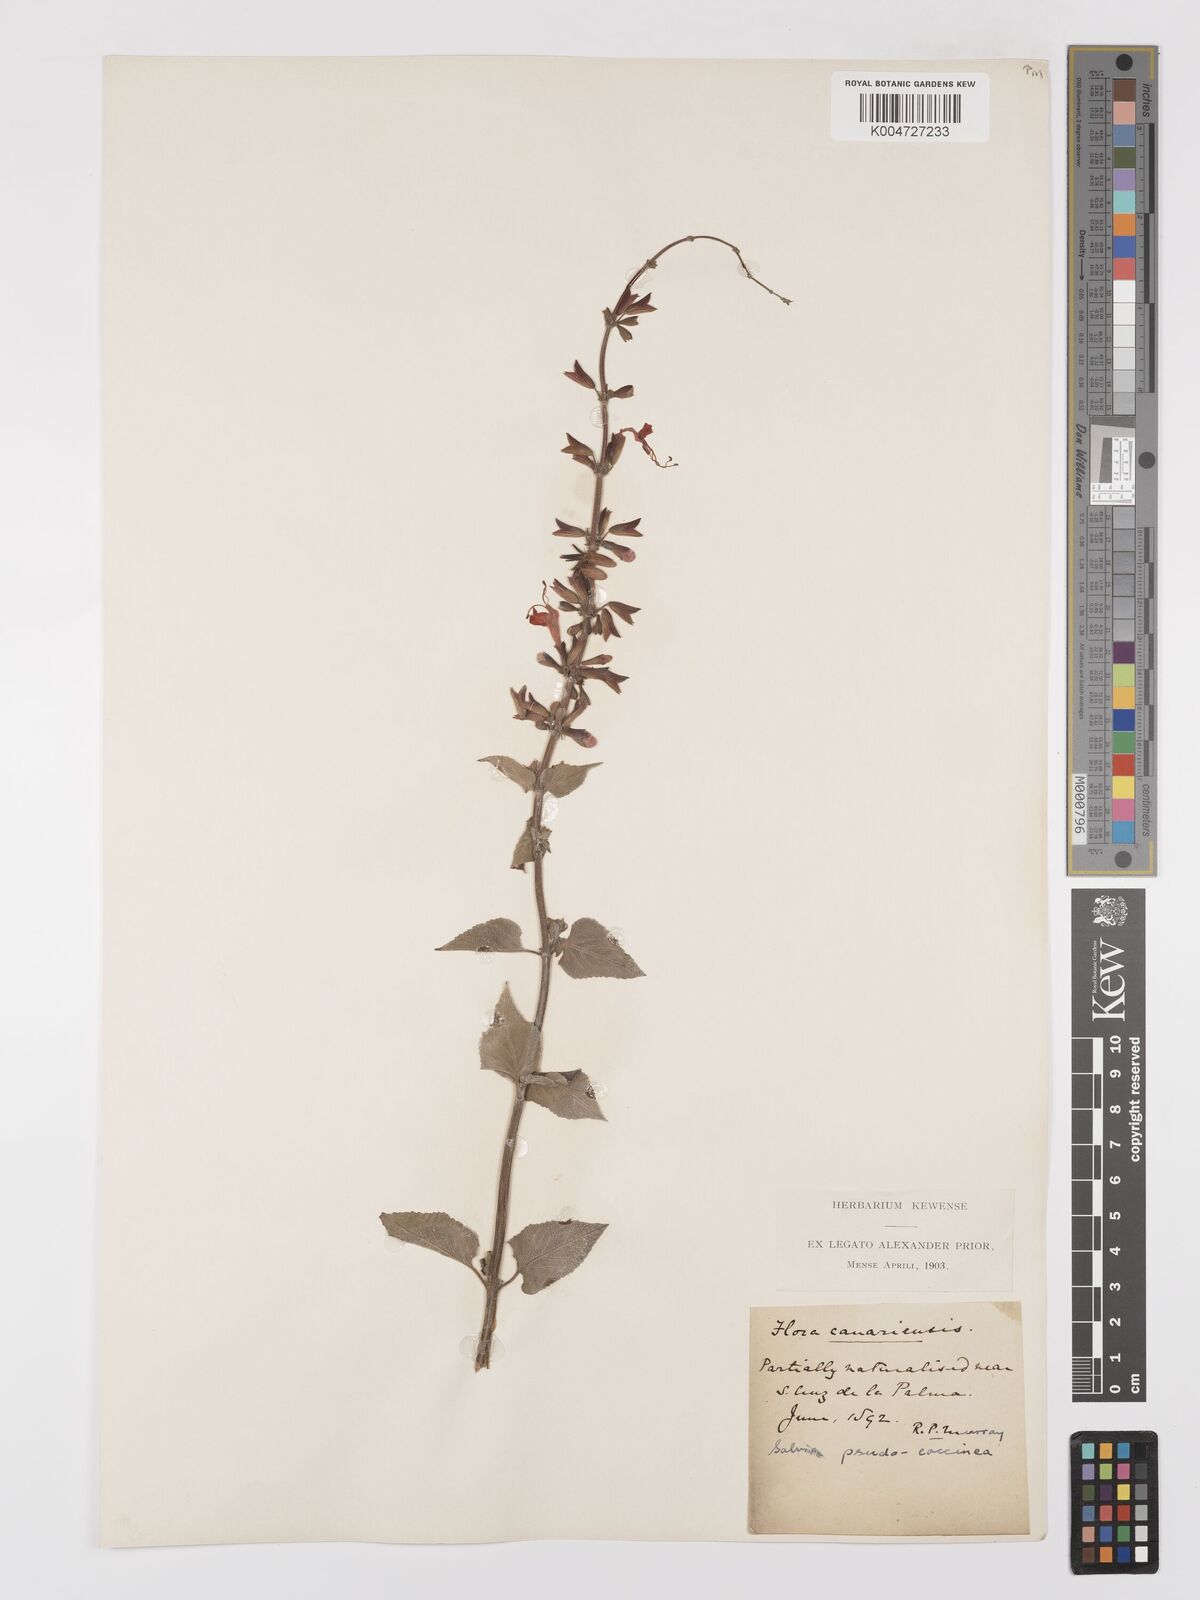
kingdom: Plantae
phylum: Tracheophyta
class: Magnoliopsida
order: Lamiales
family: Lamiaceae
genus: Salvia
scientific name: Salvia
